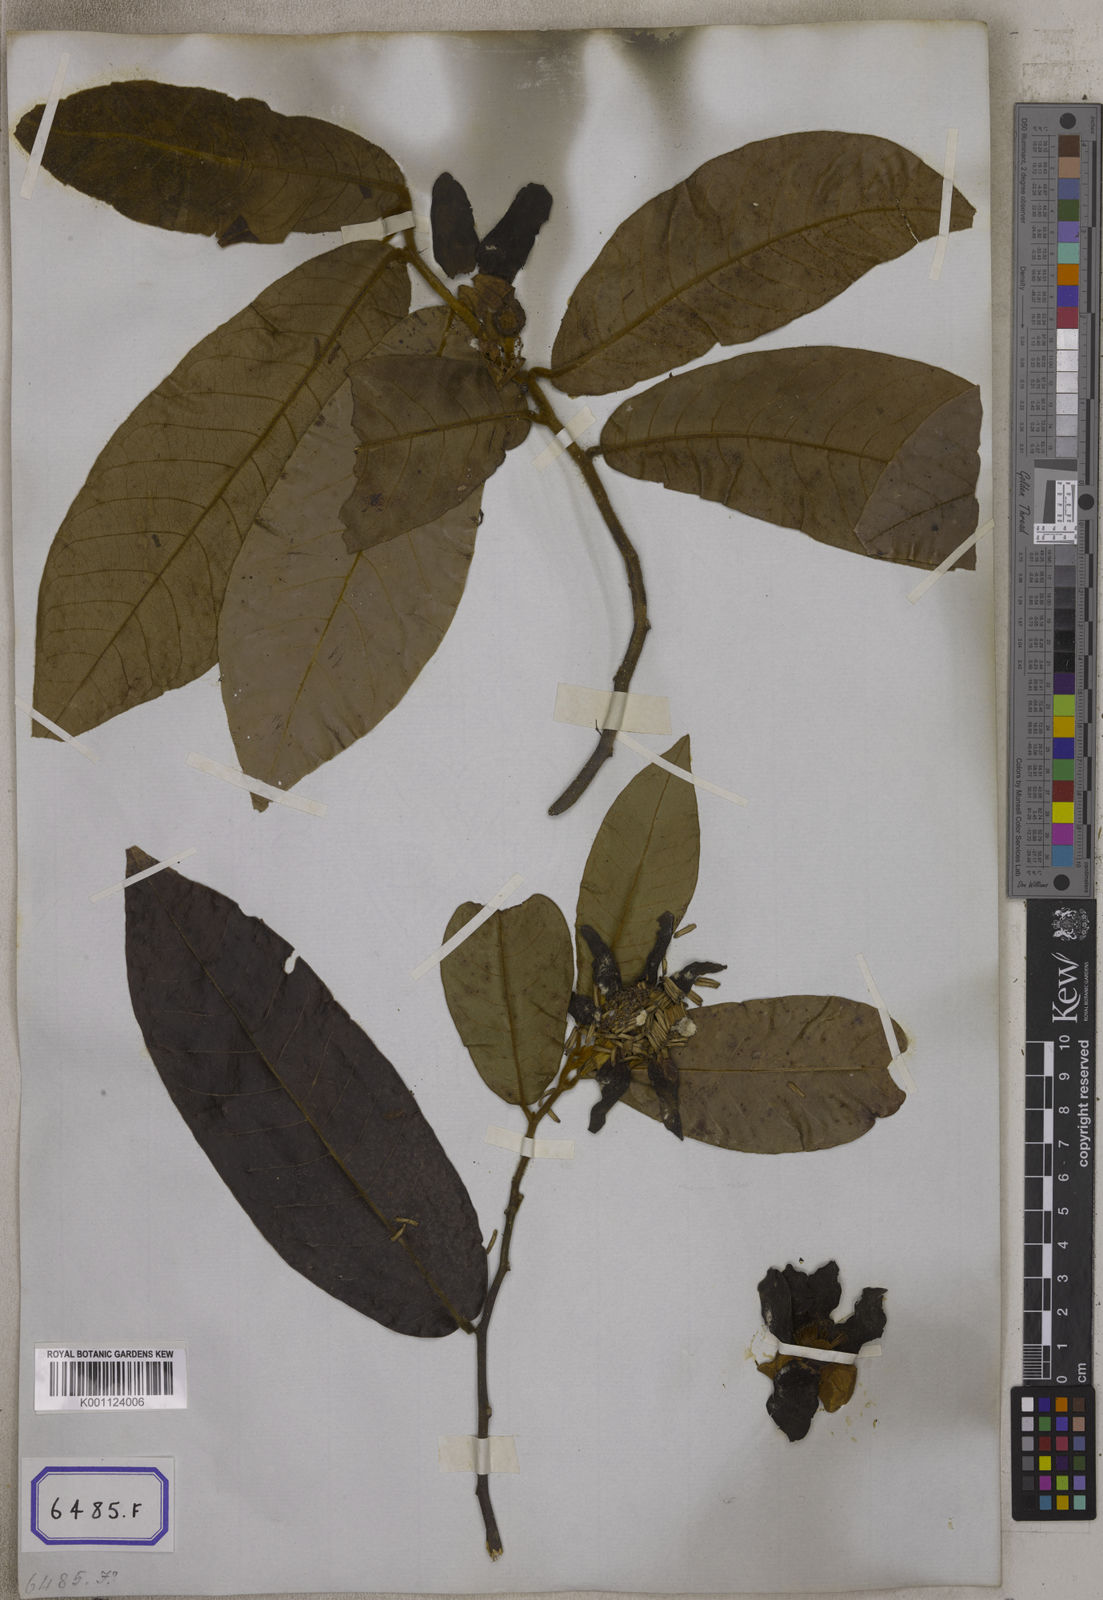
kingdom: Plantae
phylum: Tracheophyta
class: Magnoliopsida
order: Magnoliales
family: Annonaceae
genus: Uvaria
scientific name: Uvaria grandiflora
